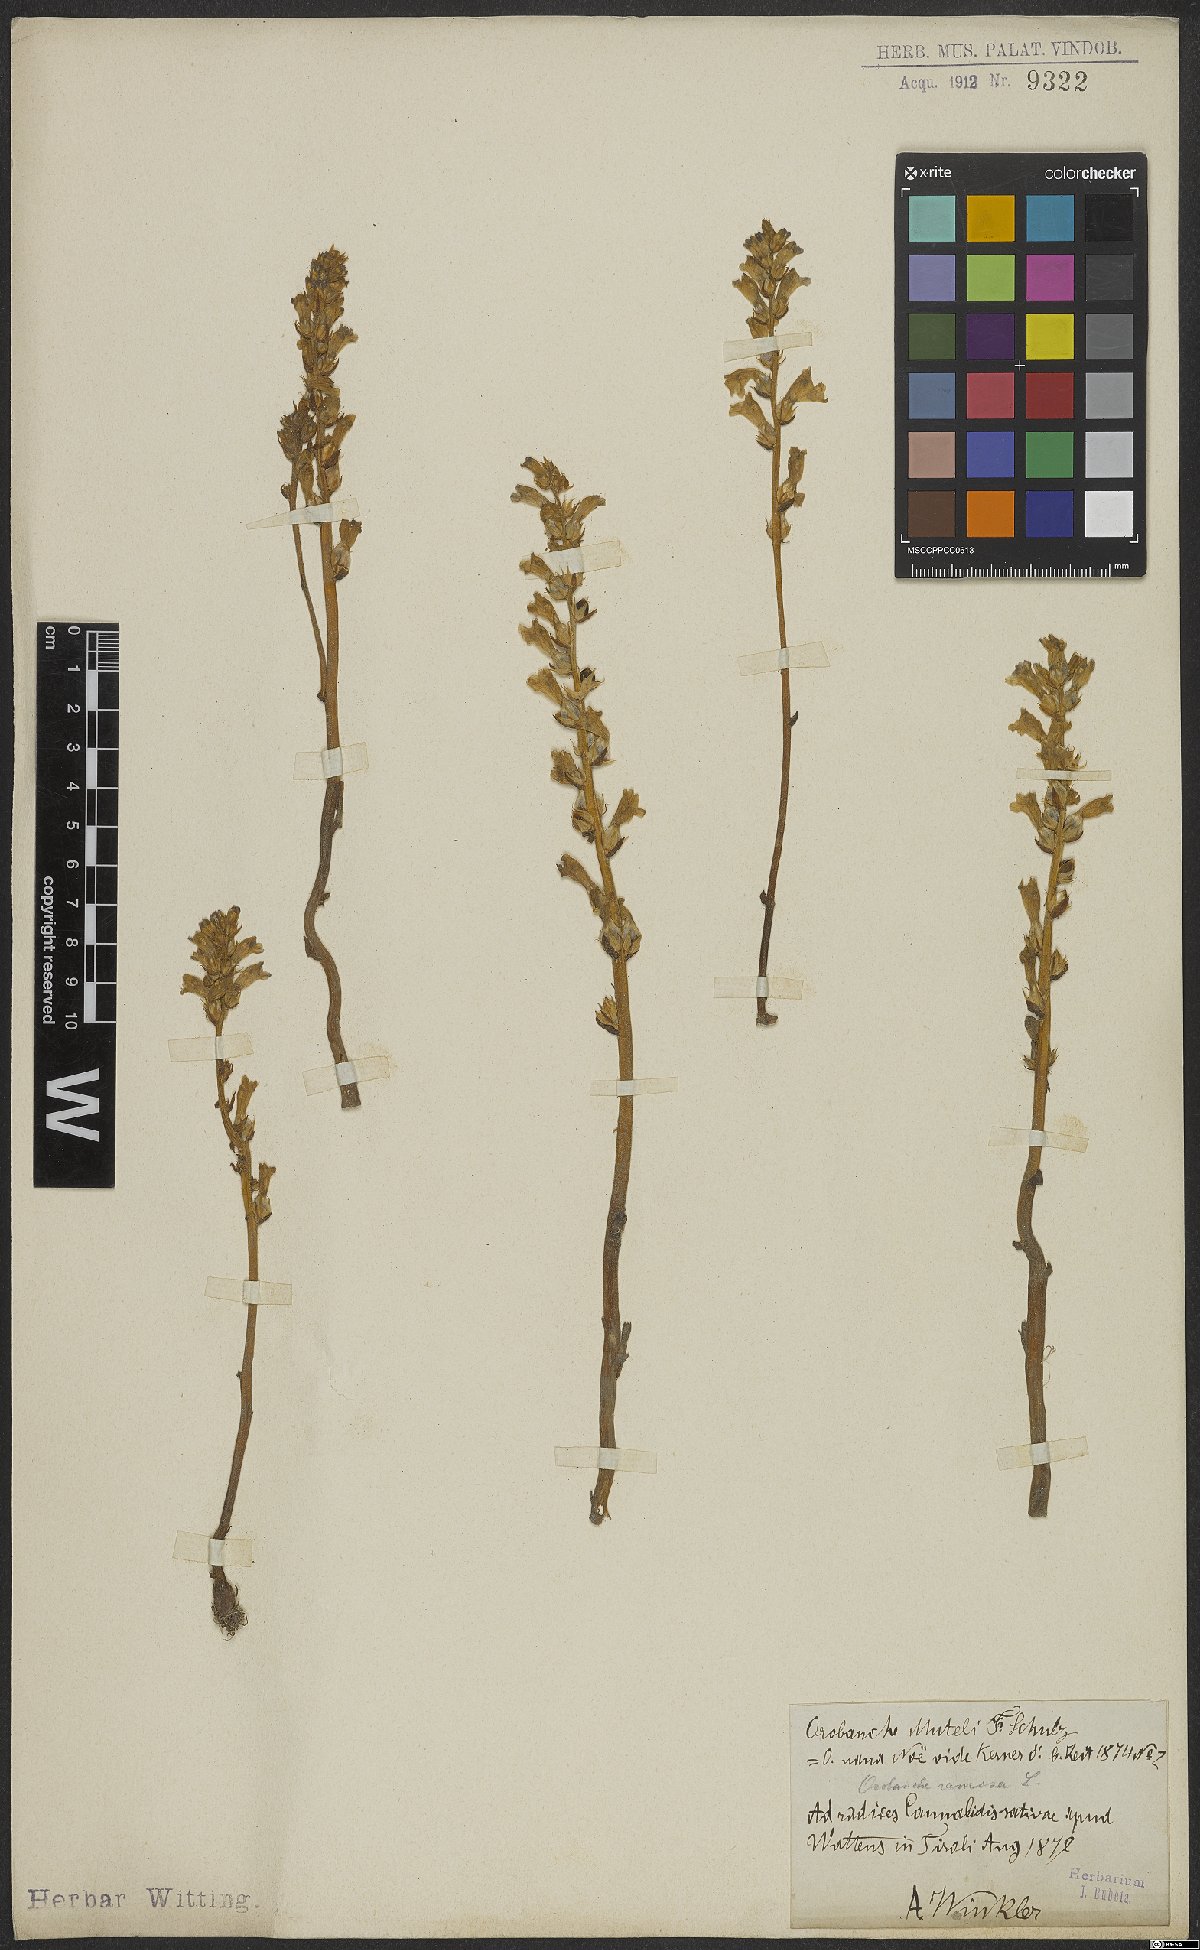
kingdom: Plantae
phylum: Tracheophyta
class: Magnoliopsida
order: Lamiales
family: Orobanchaceae
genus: Phelipanche
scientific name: Phelipanche ramosa
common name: Branched broomrape
